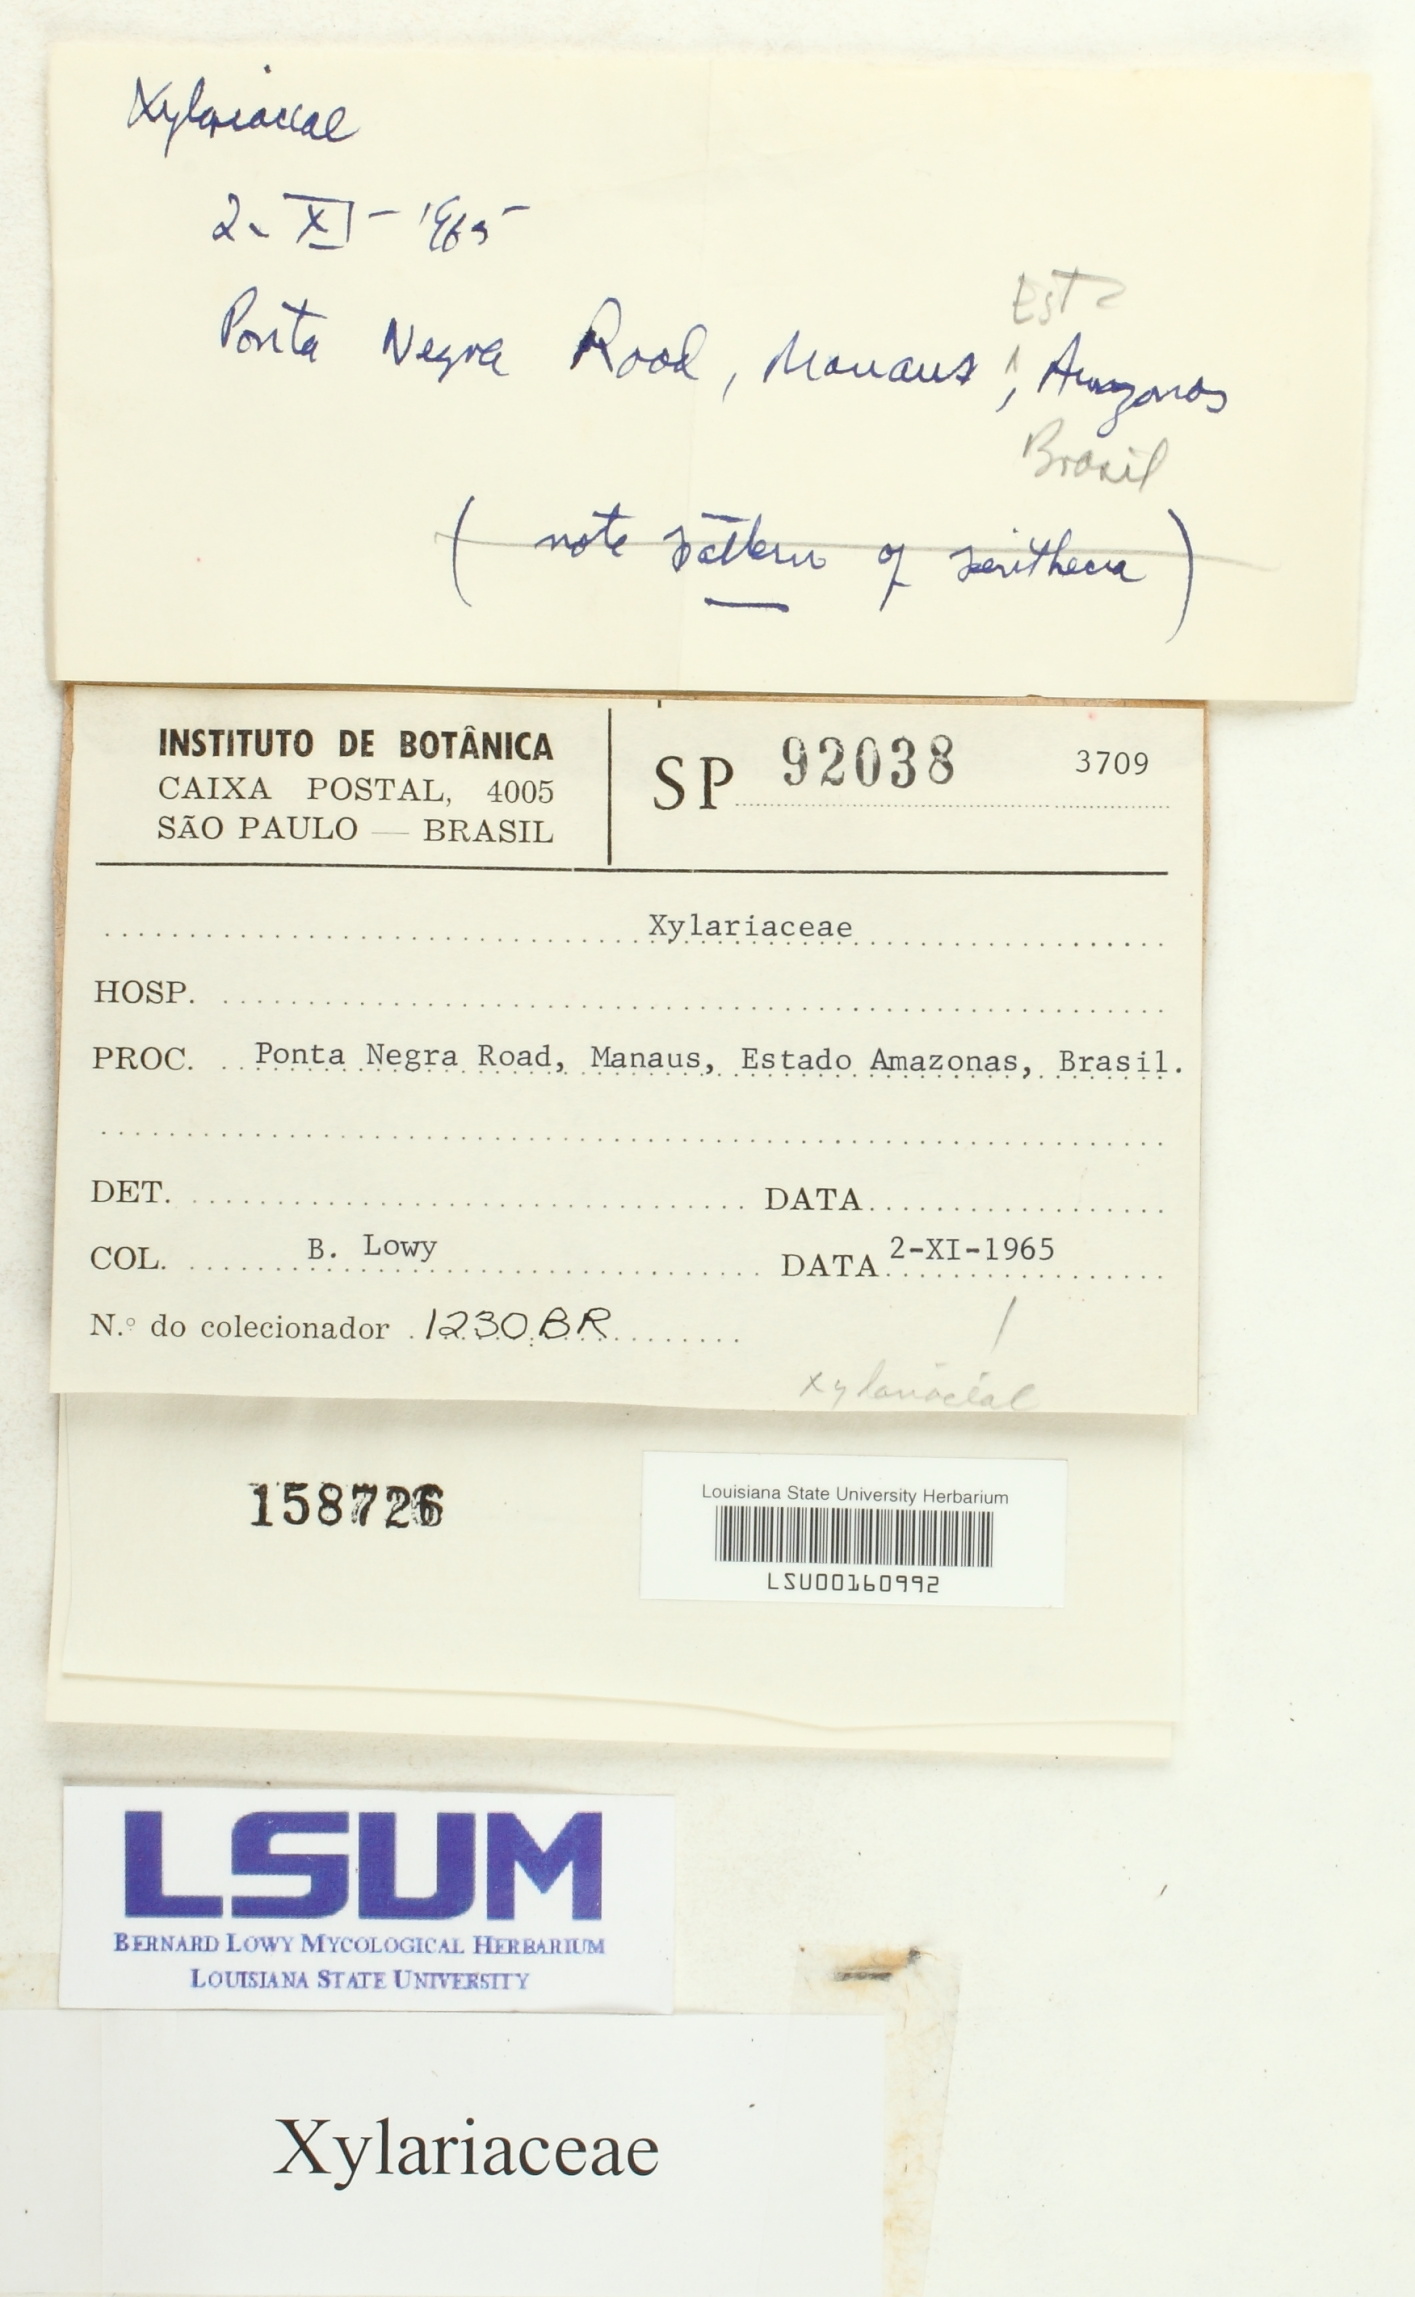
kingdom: Fungi
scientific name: Fungi
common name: Fungi
